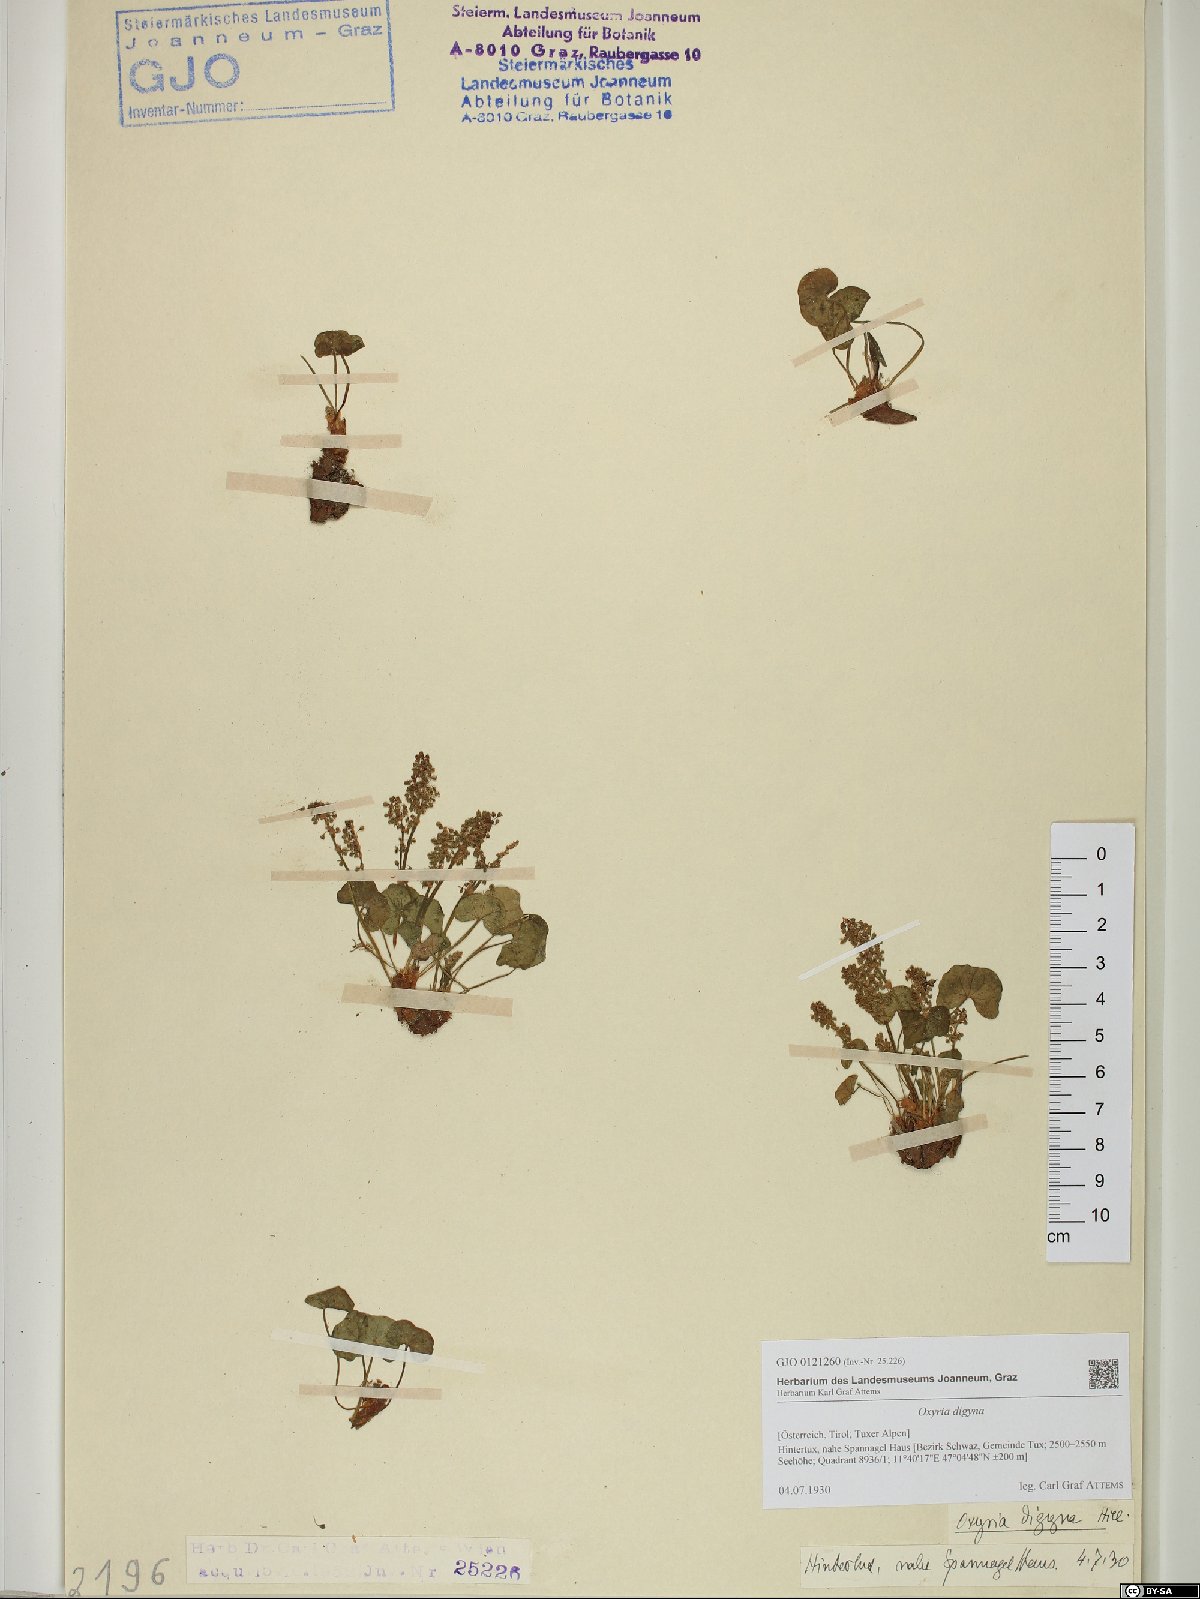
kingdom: Plantae
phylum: Tracheophyta
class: Magnoliopsida
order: Caryophyllales
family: Polygonaceae
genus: Oxyria
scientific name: Oxyria digyna
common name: Alpine mountain-sorrel
